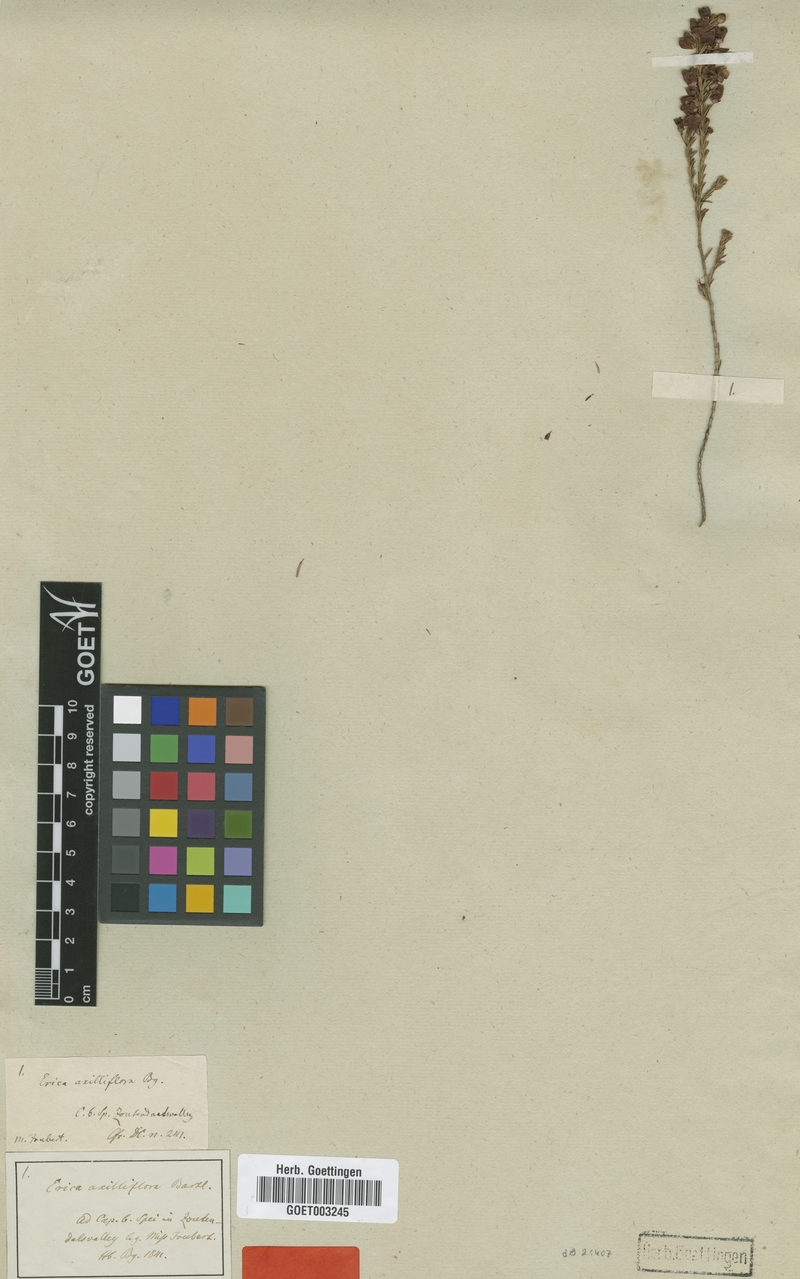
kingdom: Plantae
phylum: Tracheophyta
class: Magnoliopsida
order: Ericales
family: Ericaceae
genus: Erica
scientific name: Erica axilliflora
